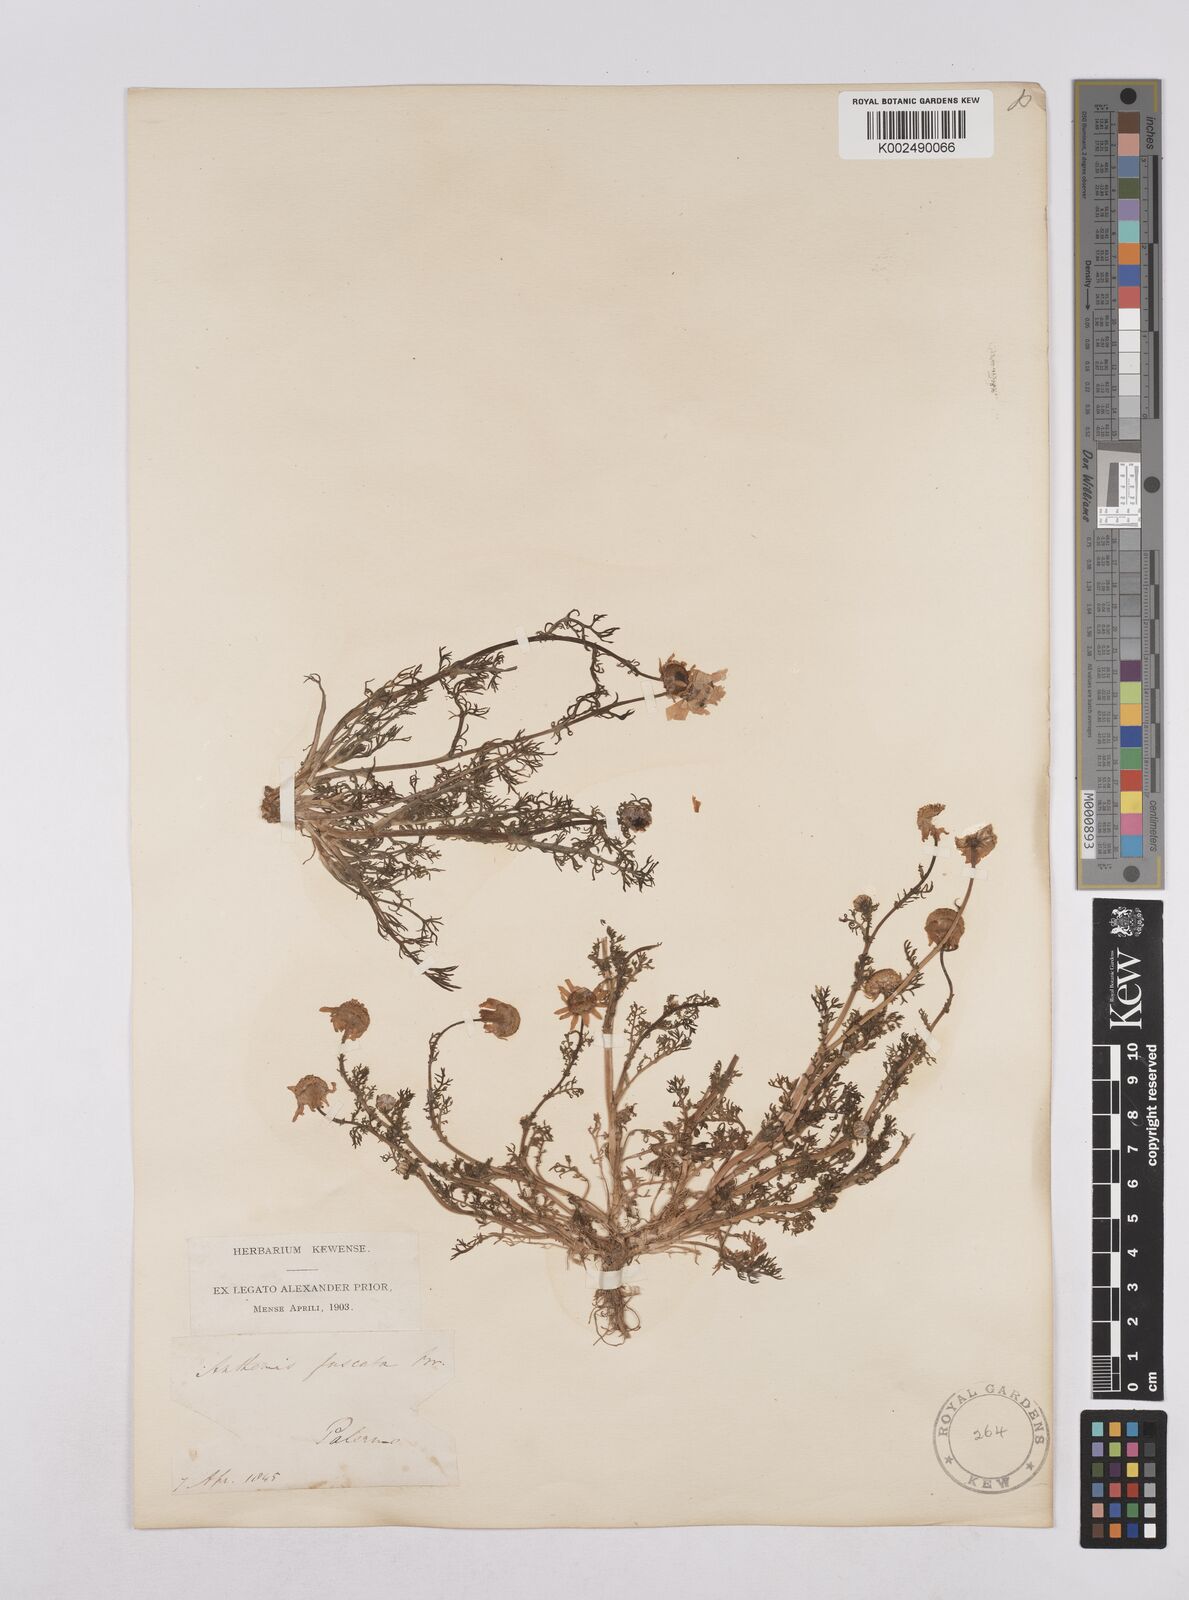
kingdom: Plantae
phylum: Tracheophyta
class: Magnoliopsida
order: Asterales
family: Asteraceae
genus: Chamaemelum
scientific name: Chamaemelum fuscatum
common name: Chamomile
